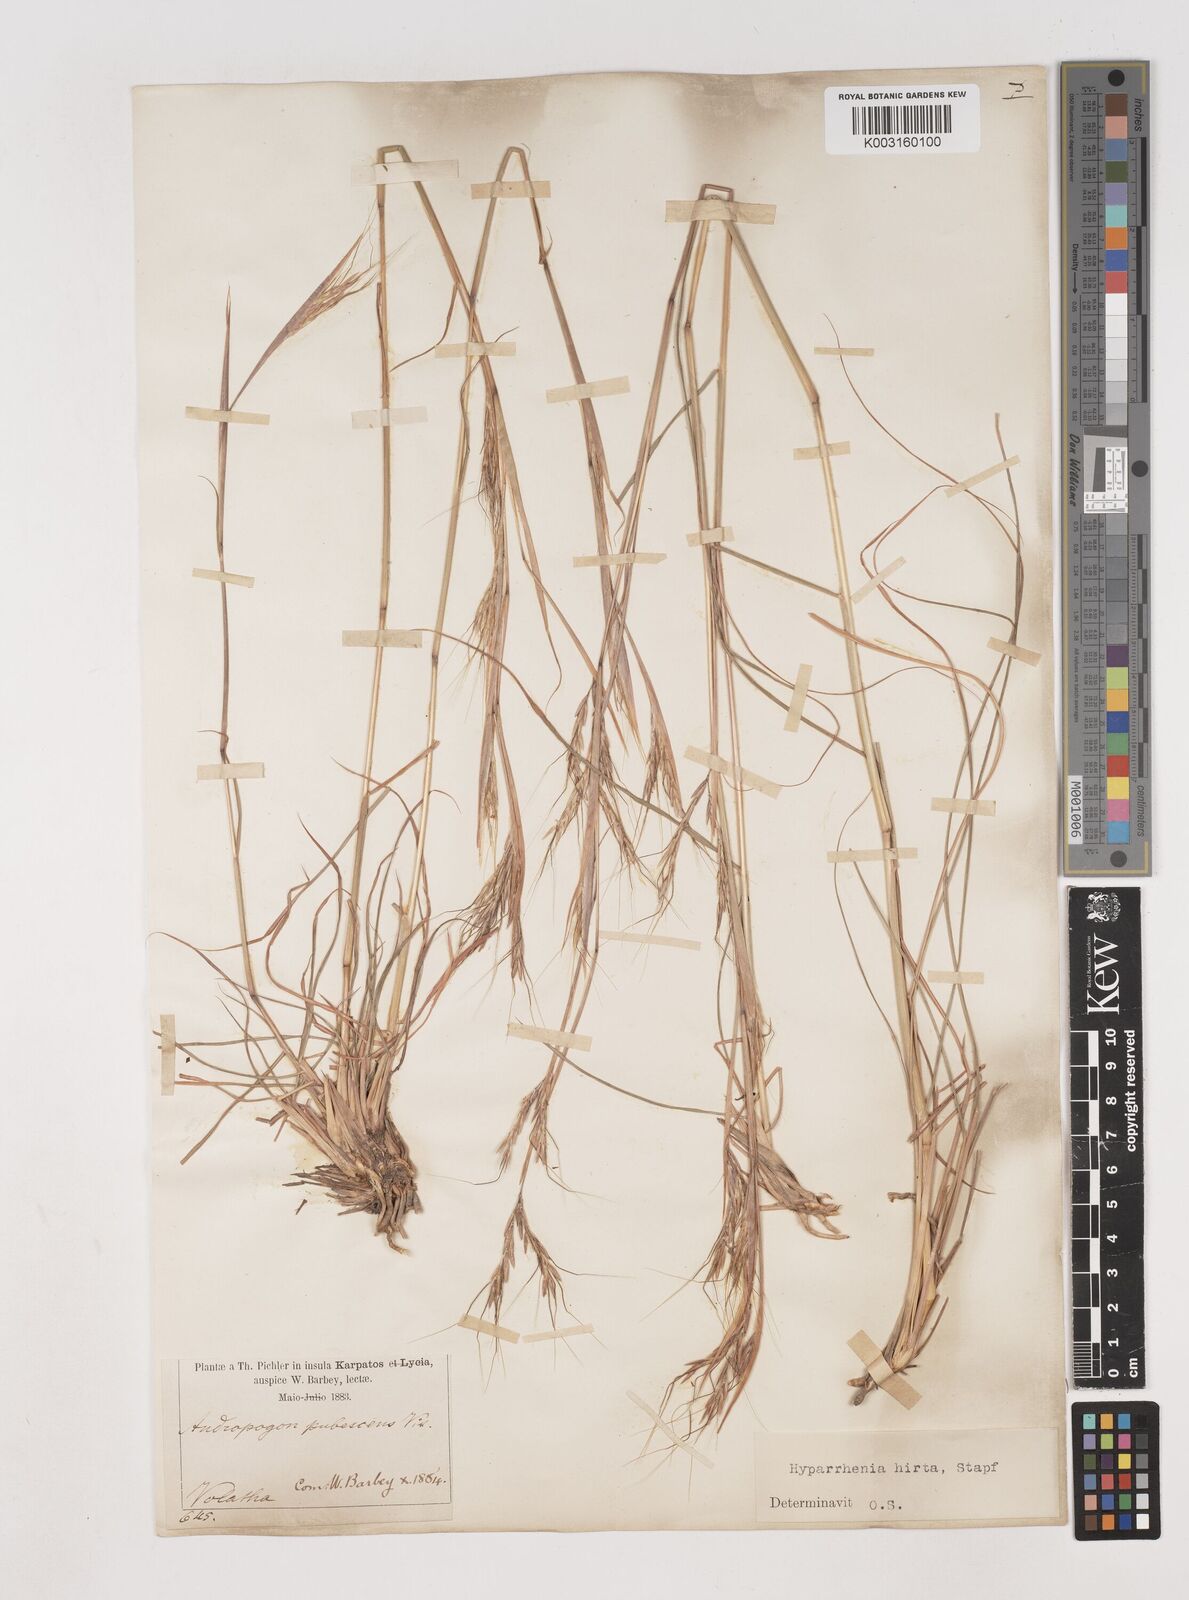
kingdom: Plantae
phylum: Tracheophyta
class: Liliopsida
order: Poales
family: Poaceae
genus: Hyparrhenia
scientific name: Hyparrhenia hirta
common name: Thatching grass
